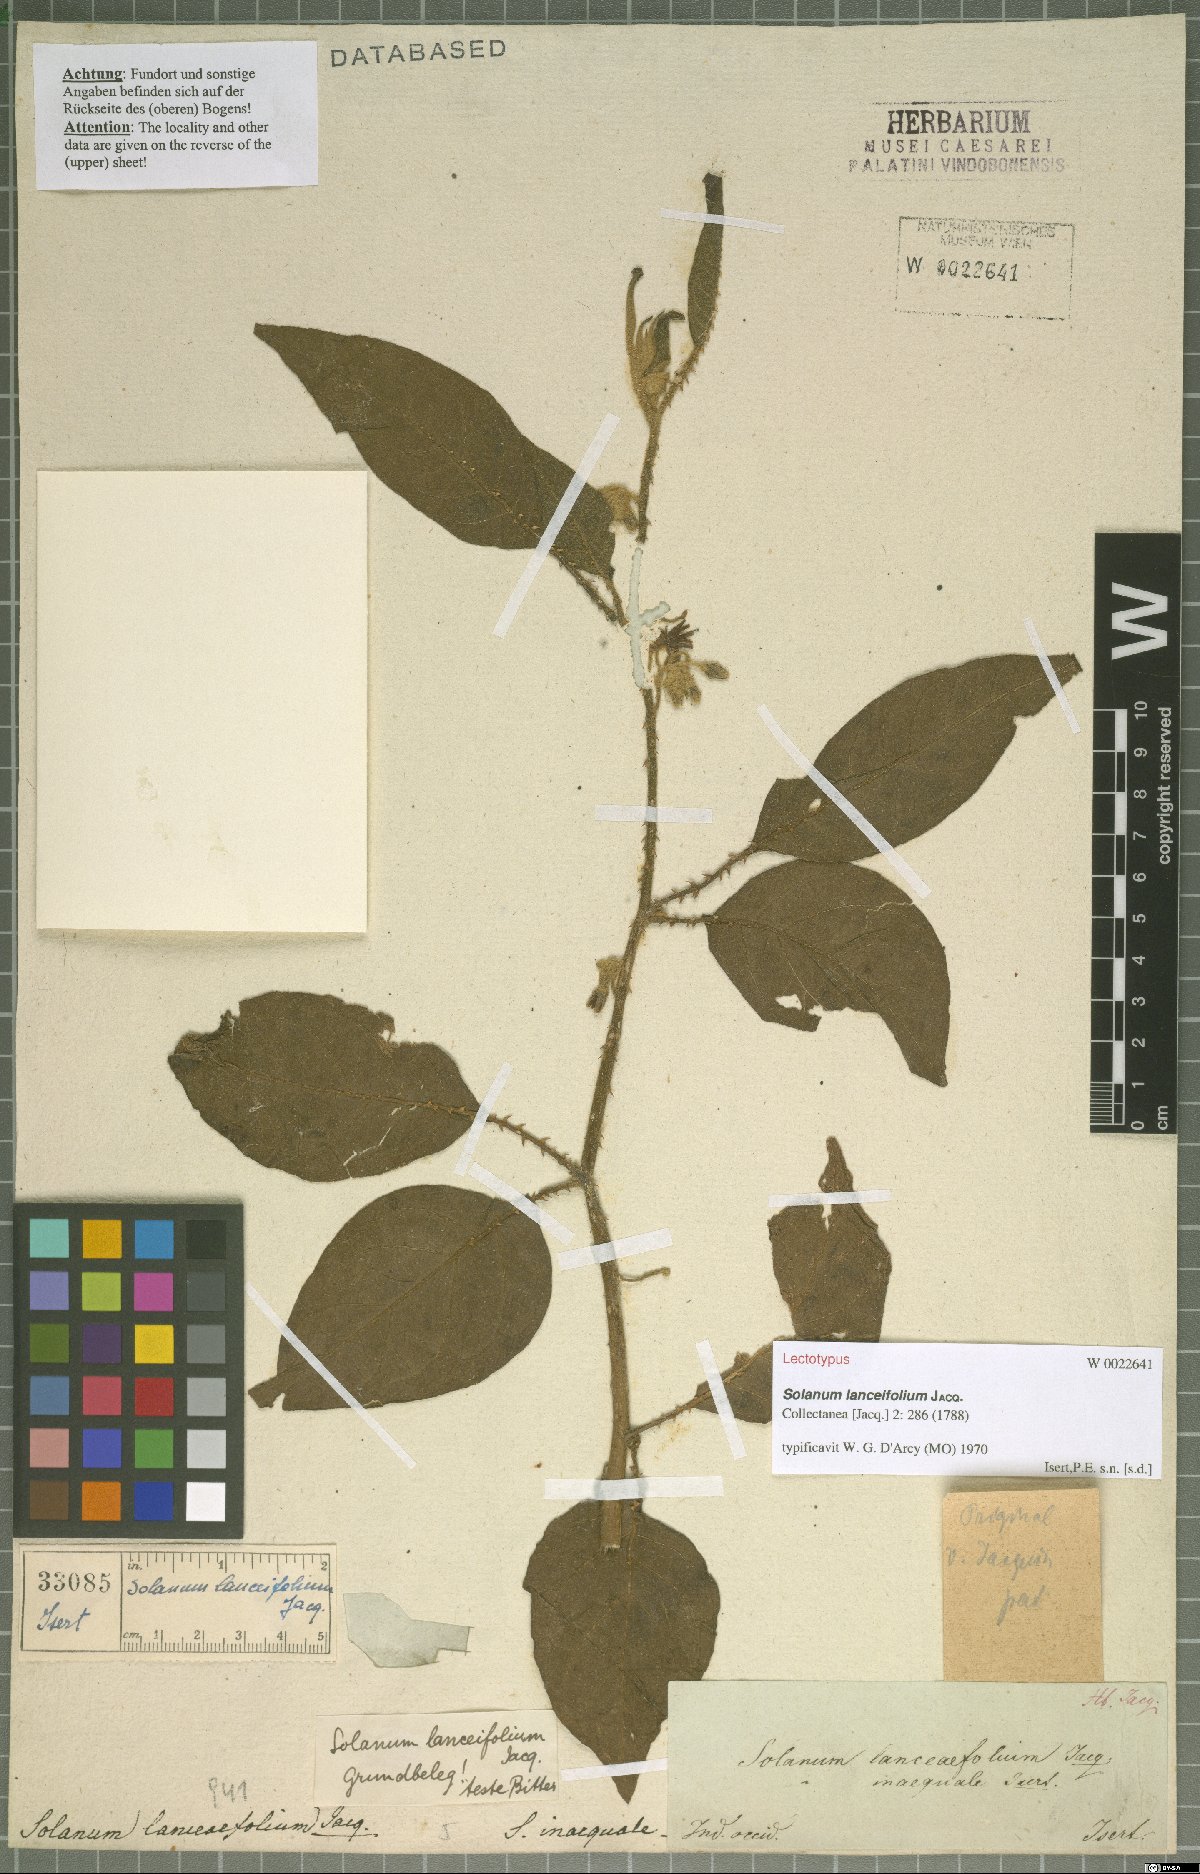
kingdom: Plantae
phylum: Tracheophyta
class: Magnoliopsida
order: Solanales
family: Solanaceae
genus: Solanum
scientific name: Solanum lanceifolium
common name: Lanceleaf nightshade
